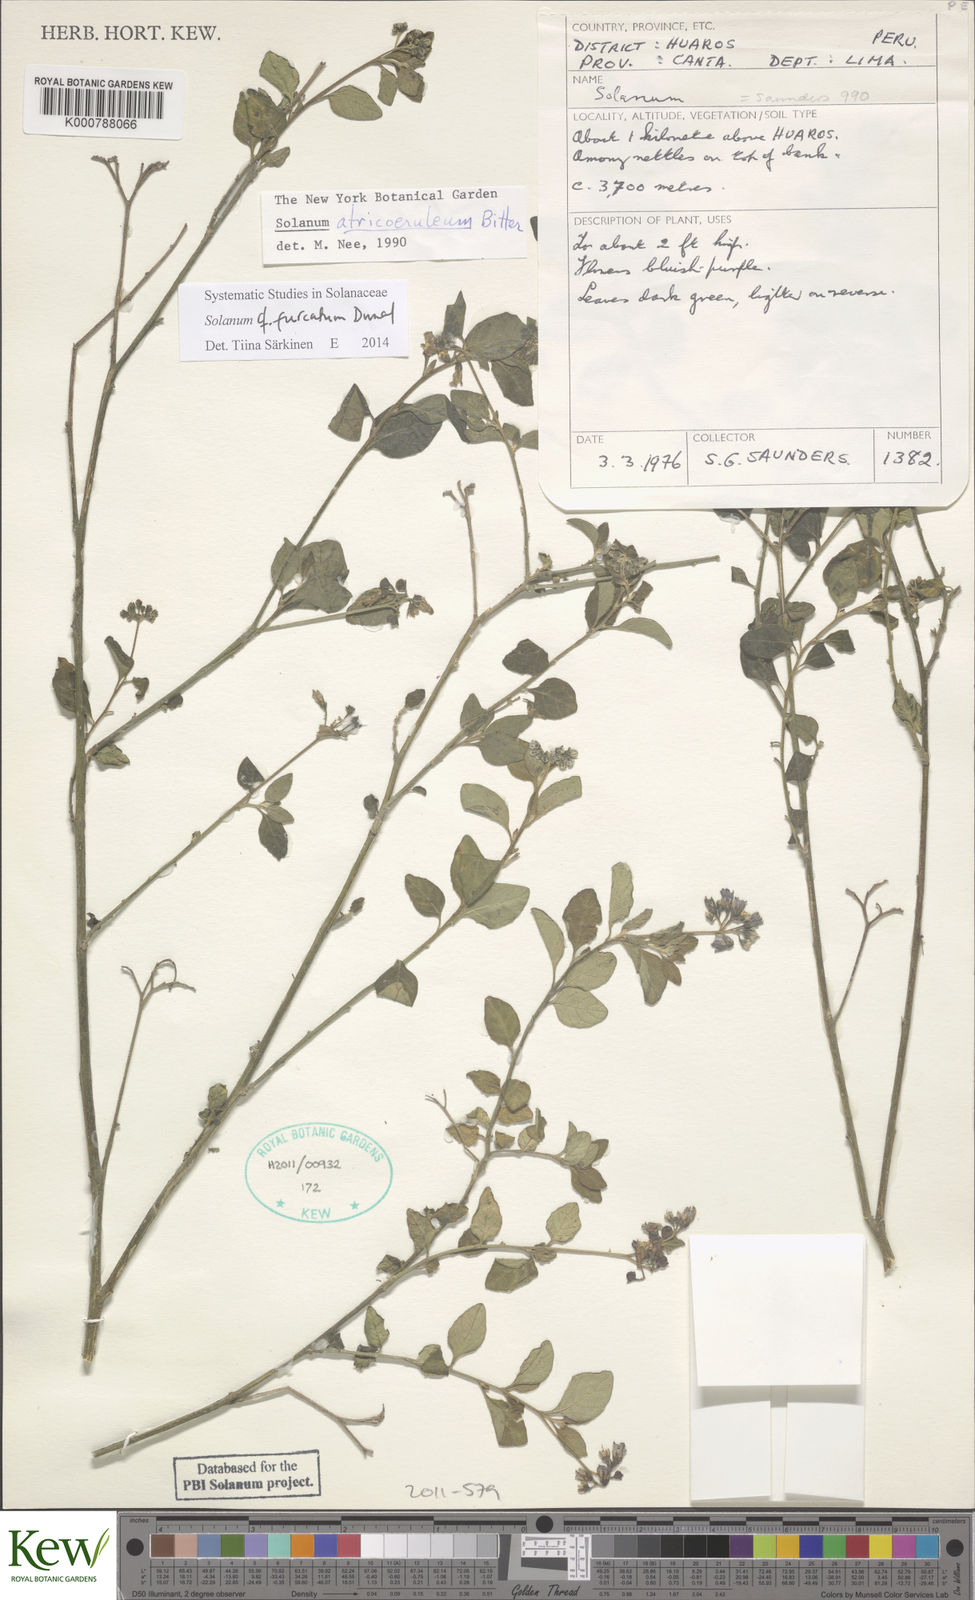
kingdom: Plantae
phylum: Tracheophyta
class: Magnoliopsida
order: Solanales
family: Solanaceae
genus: Solanum
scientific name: Solanum furcatum
